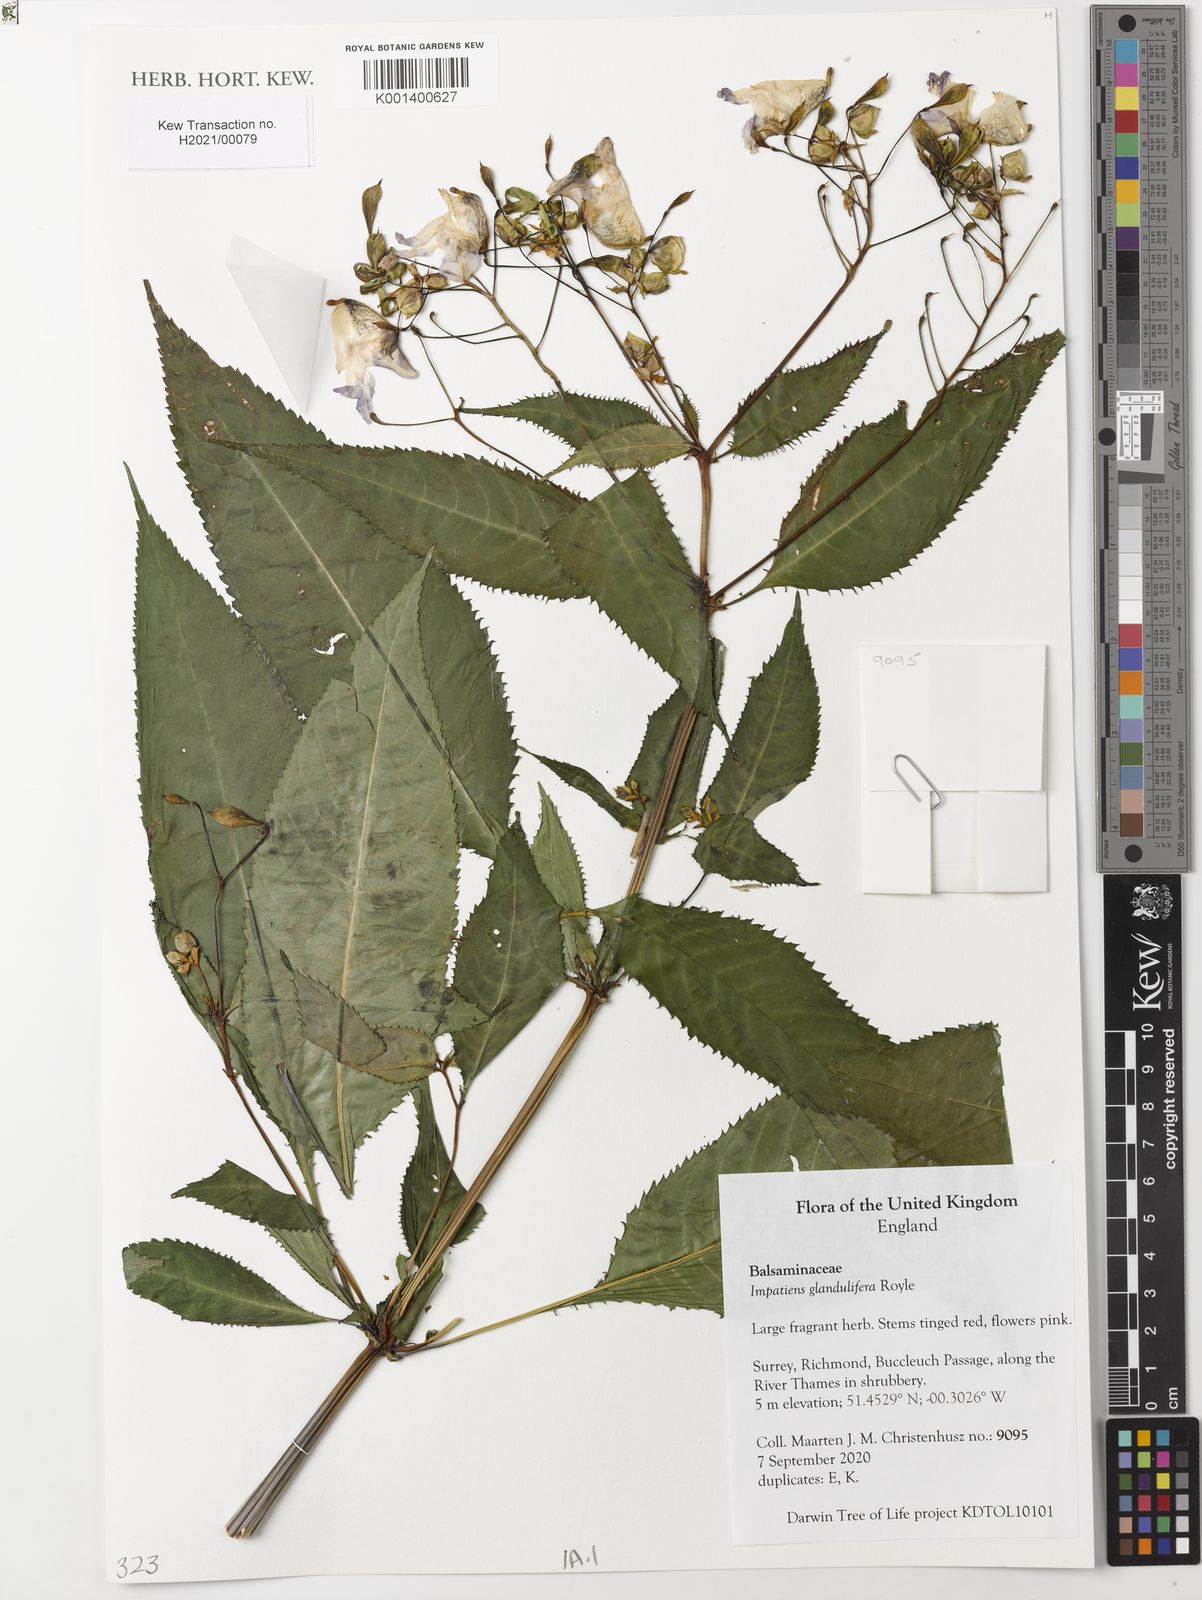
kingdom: Plantae
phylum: Tracheophyta
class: Magnoliopsida
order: Ericales
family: Balsaminaceae
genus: Impatiens
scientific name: Impatiens glandulifera
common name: Himalayan balsam
